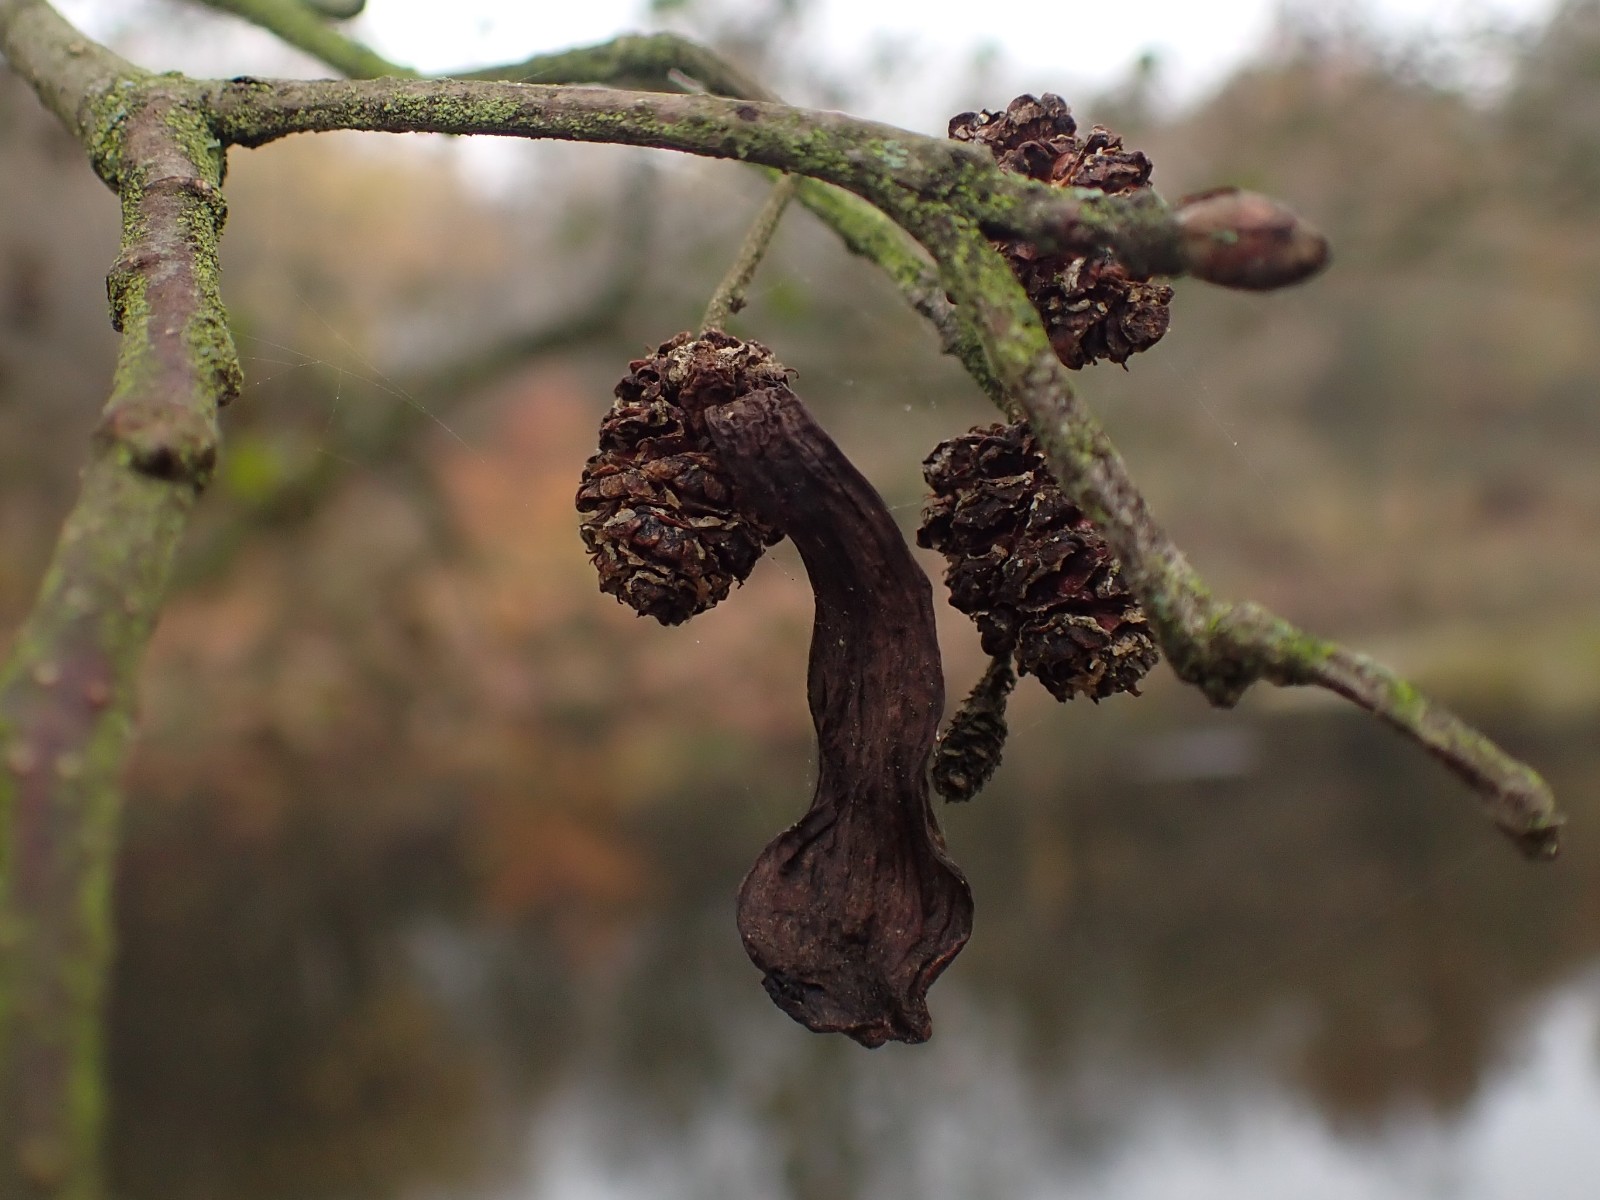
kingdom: Fungi
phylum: Ascomycota
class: Taphrinomycetes
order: Taphrinales
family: Taphrinaceae
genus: Taphrina
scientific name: Taphrina alni
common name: Alder tongue
